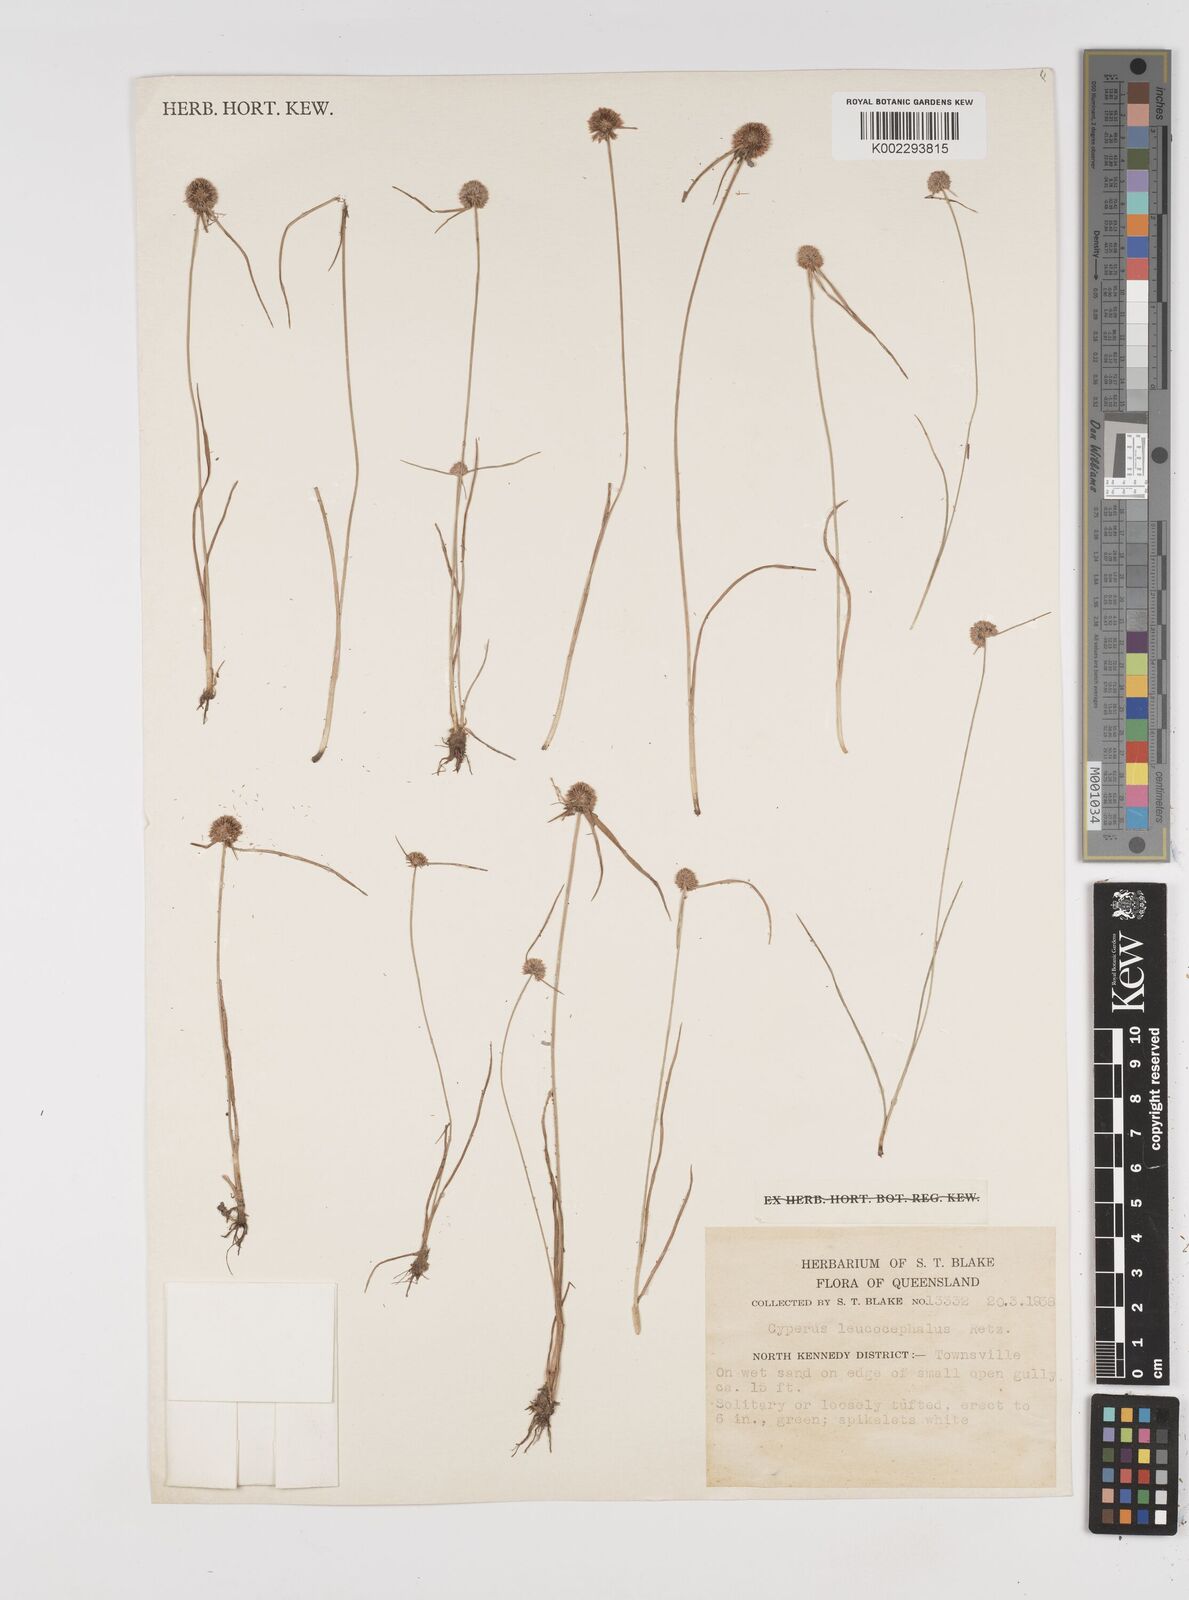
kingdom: Plantae
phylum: Tracheophyta
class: Liliopsida
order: Poales
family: Cyperaceae
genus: Cyperus
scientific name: Cyperus leucocephalus
